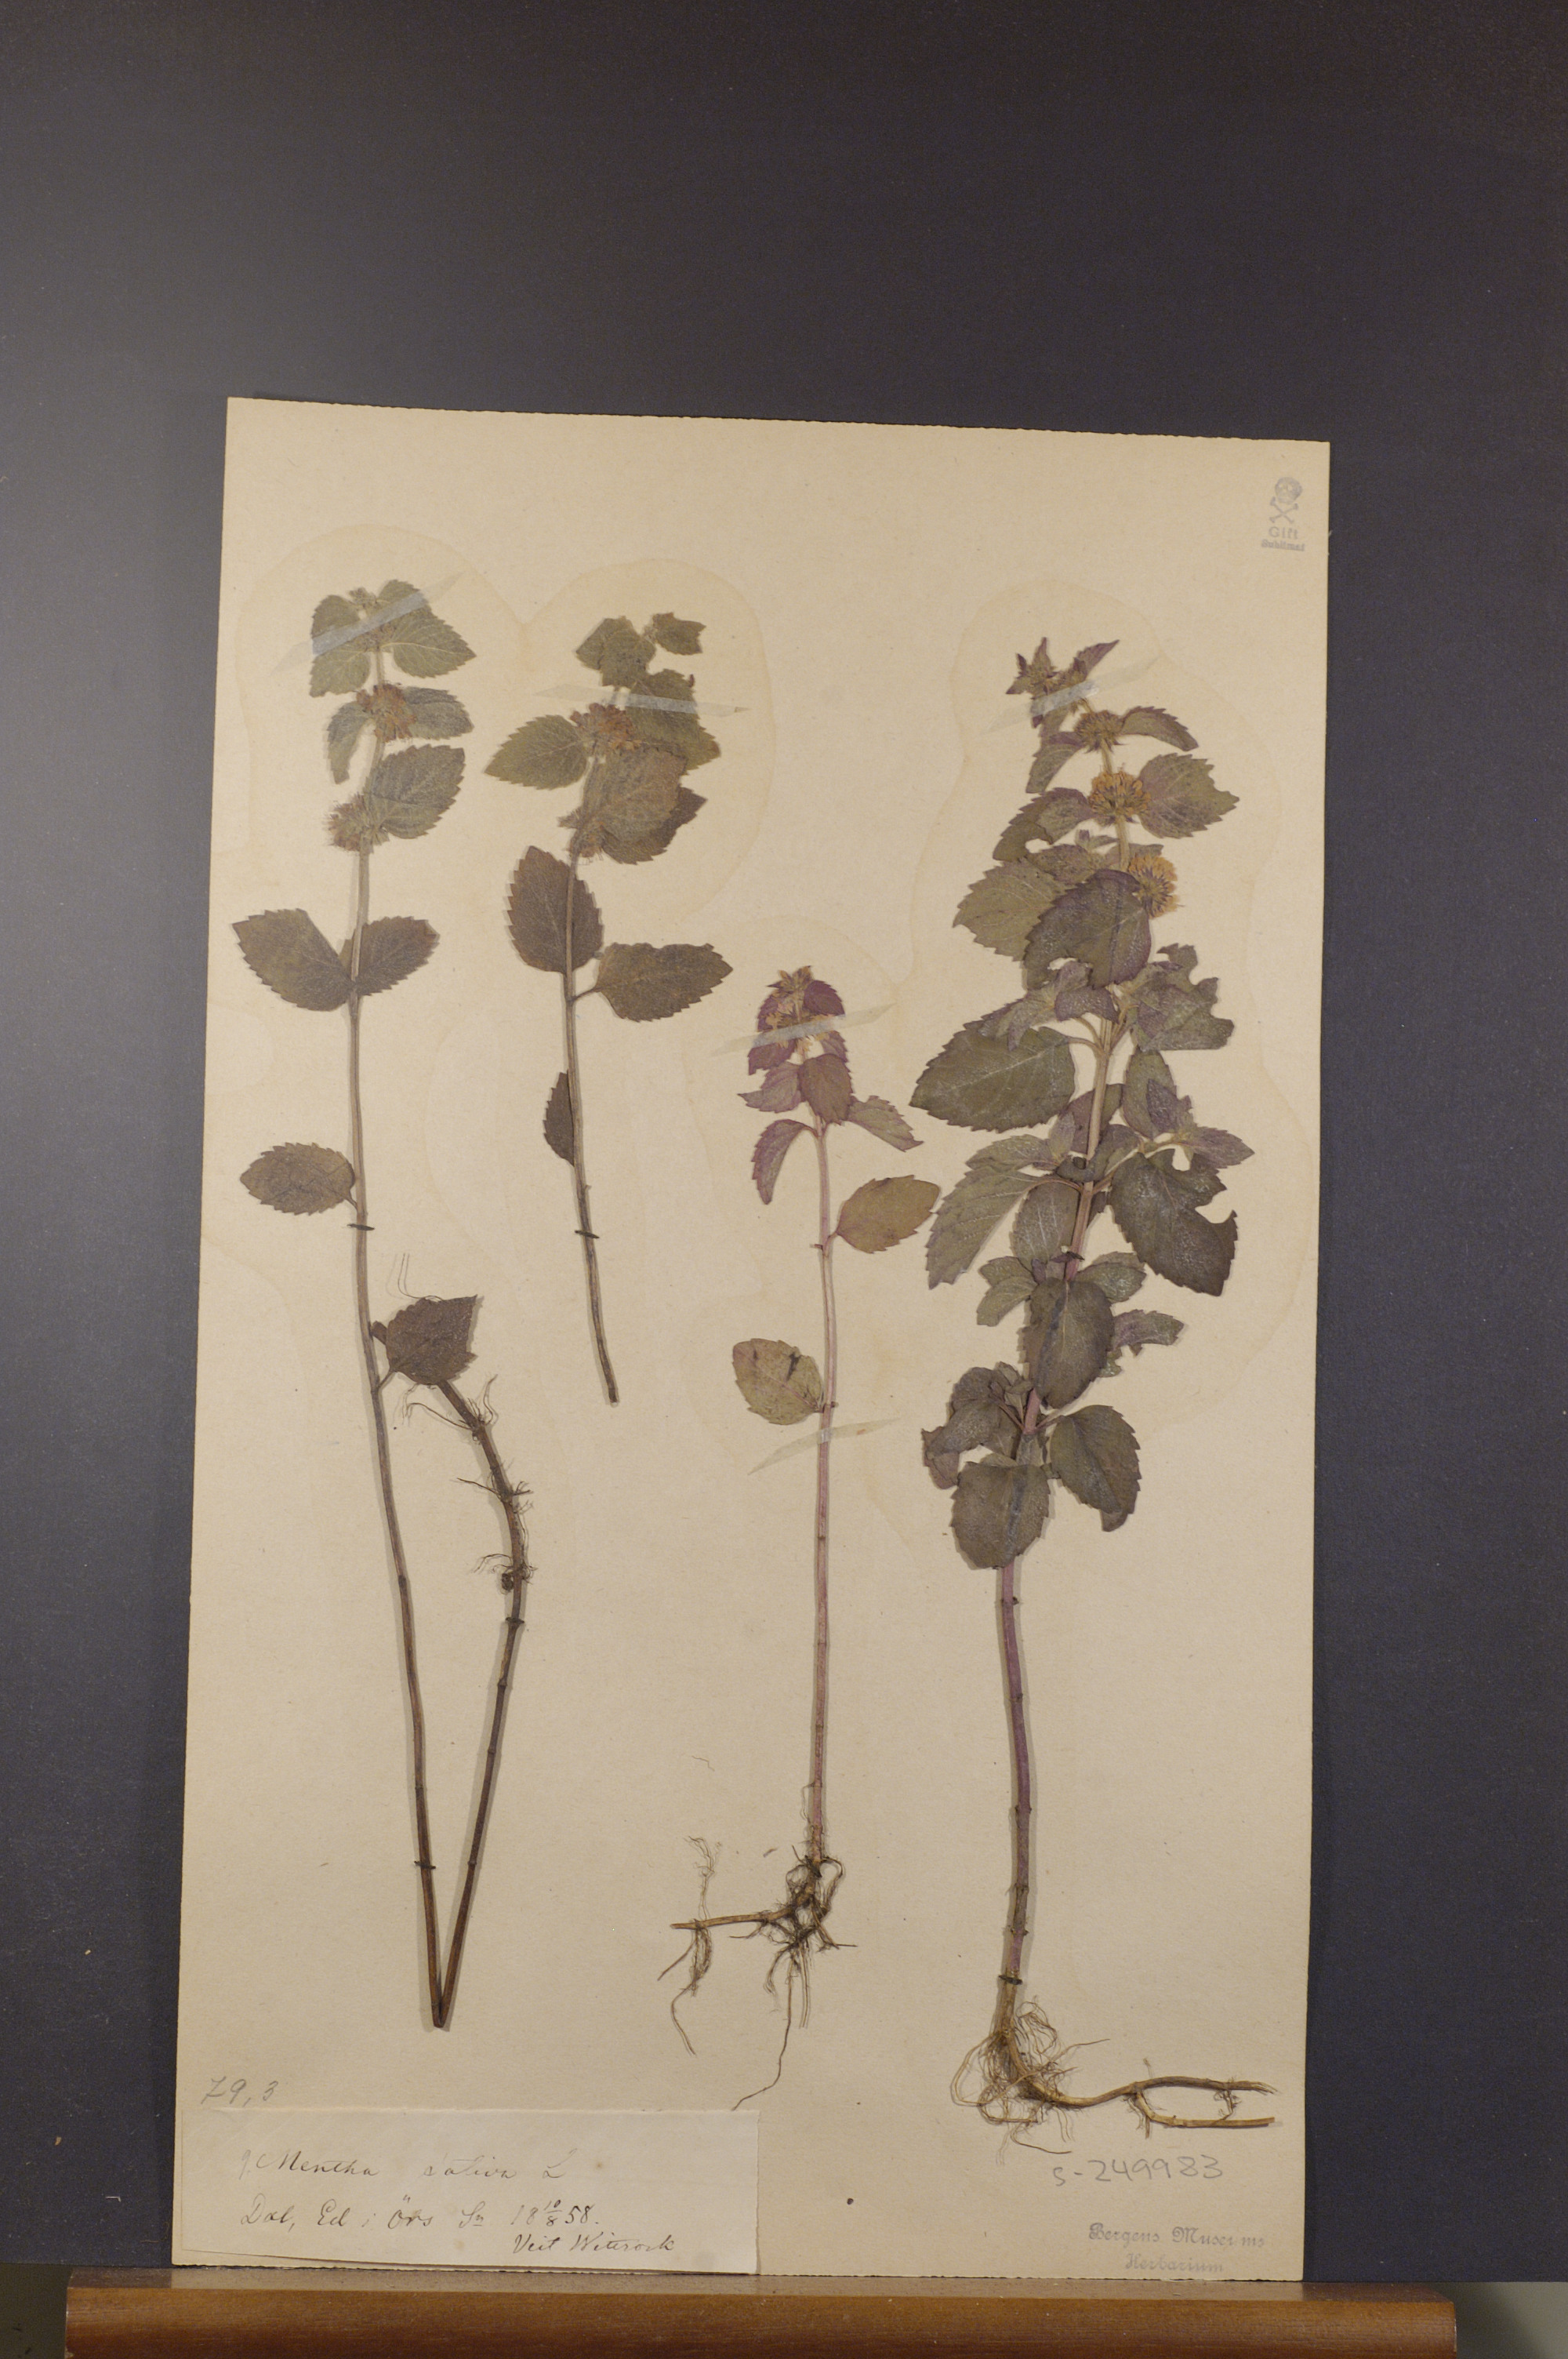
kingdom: Plantae
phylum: Tracheophyta
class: Magnoliopsida
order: Lamiales
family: Lamiaceae
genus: Mentha
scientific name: Mentha verticillata
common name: Mint
